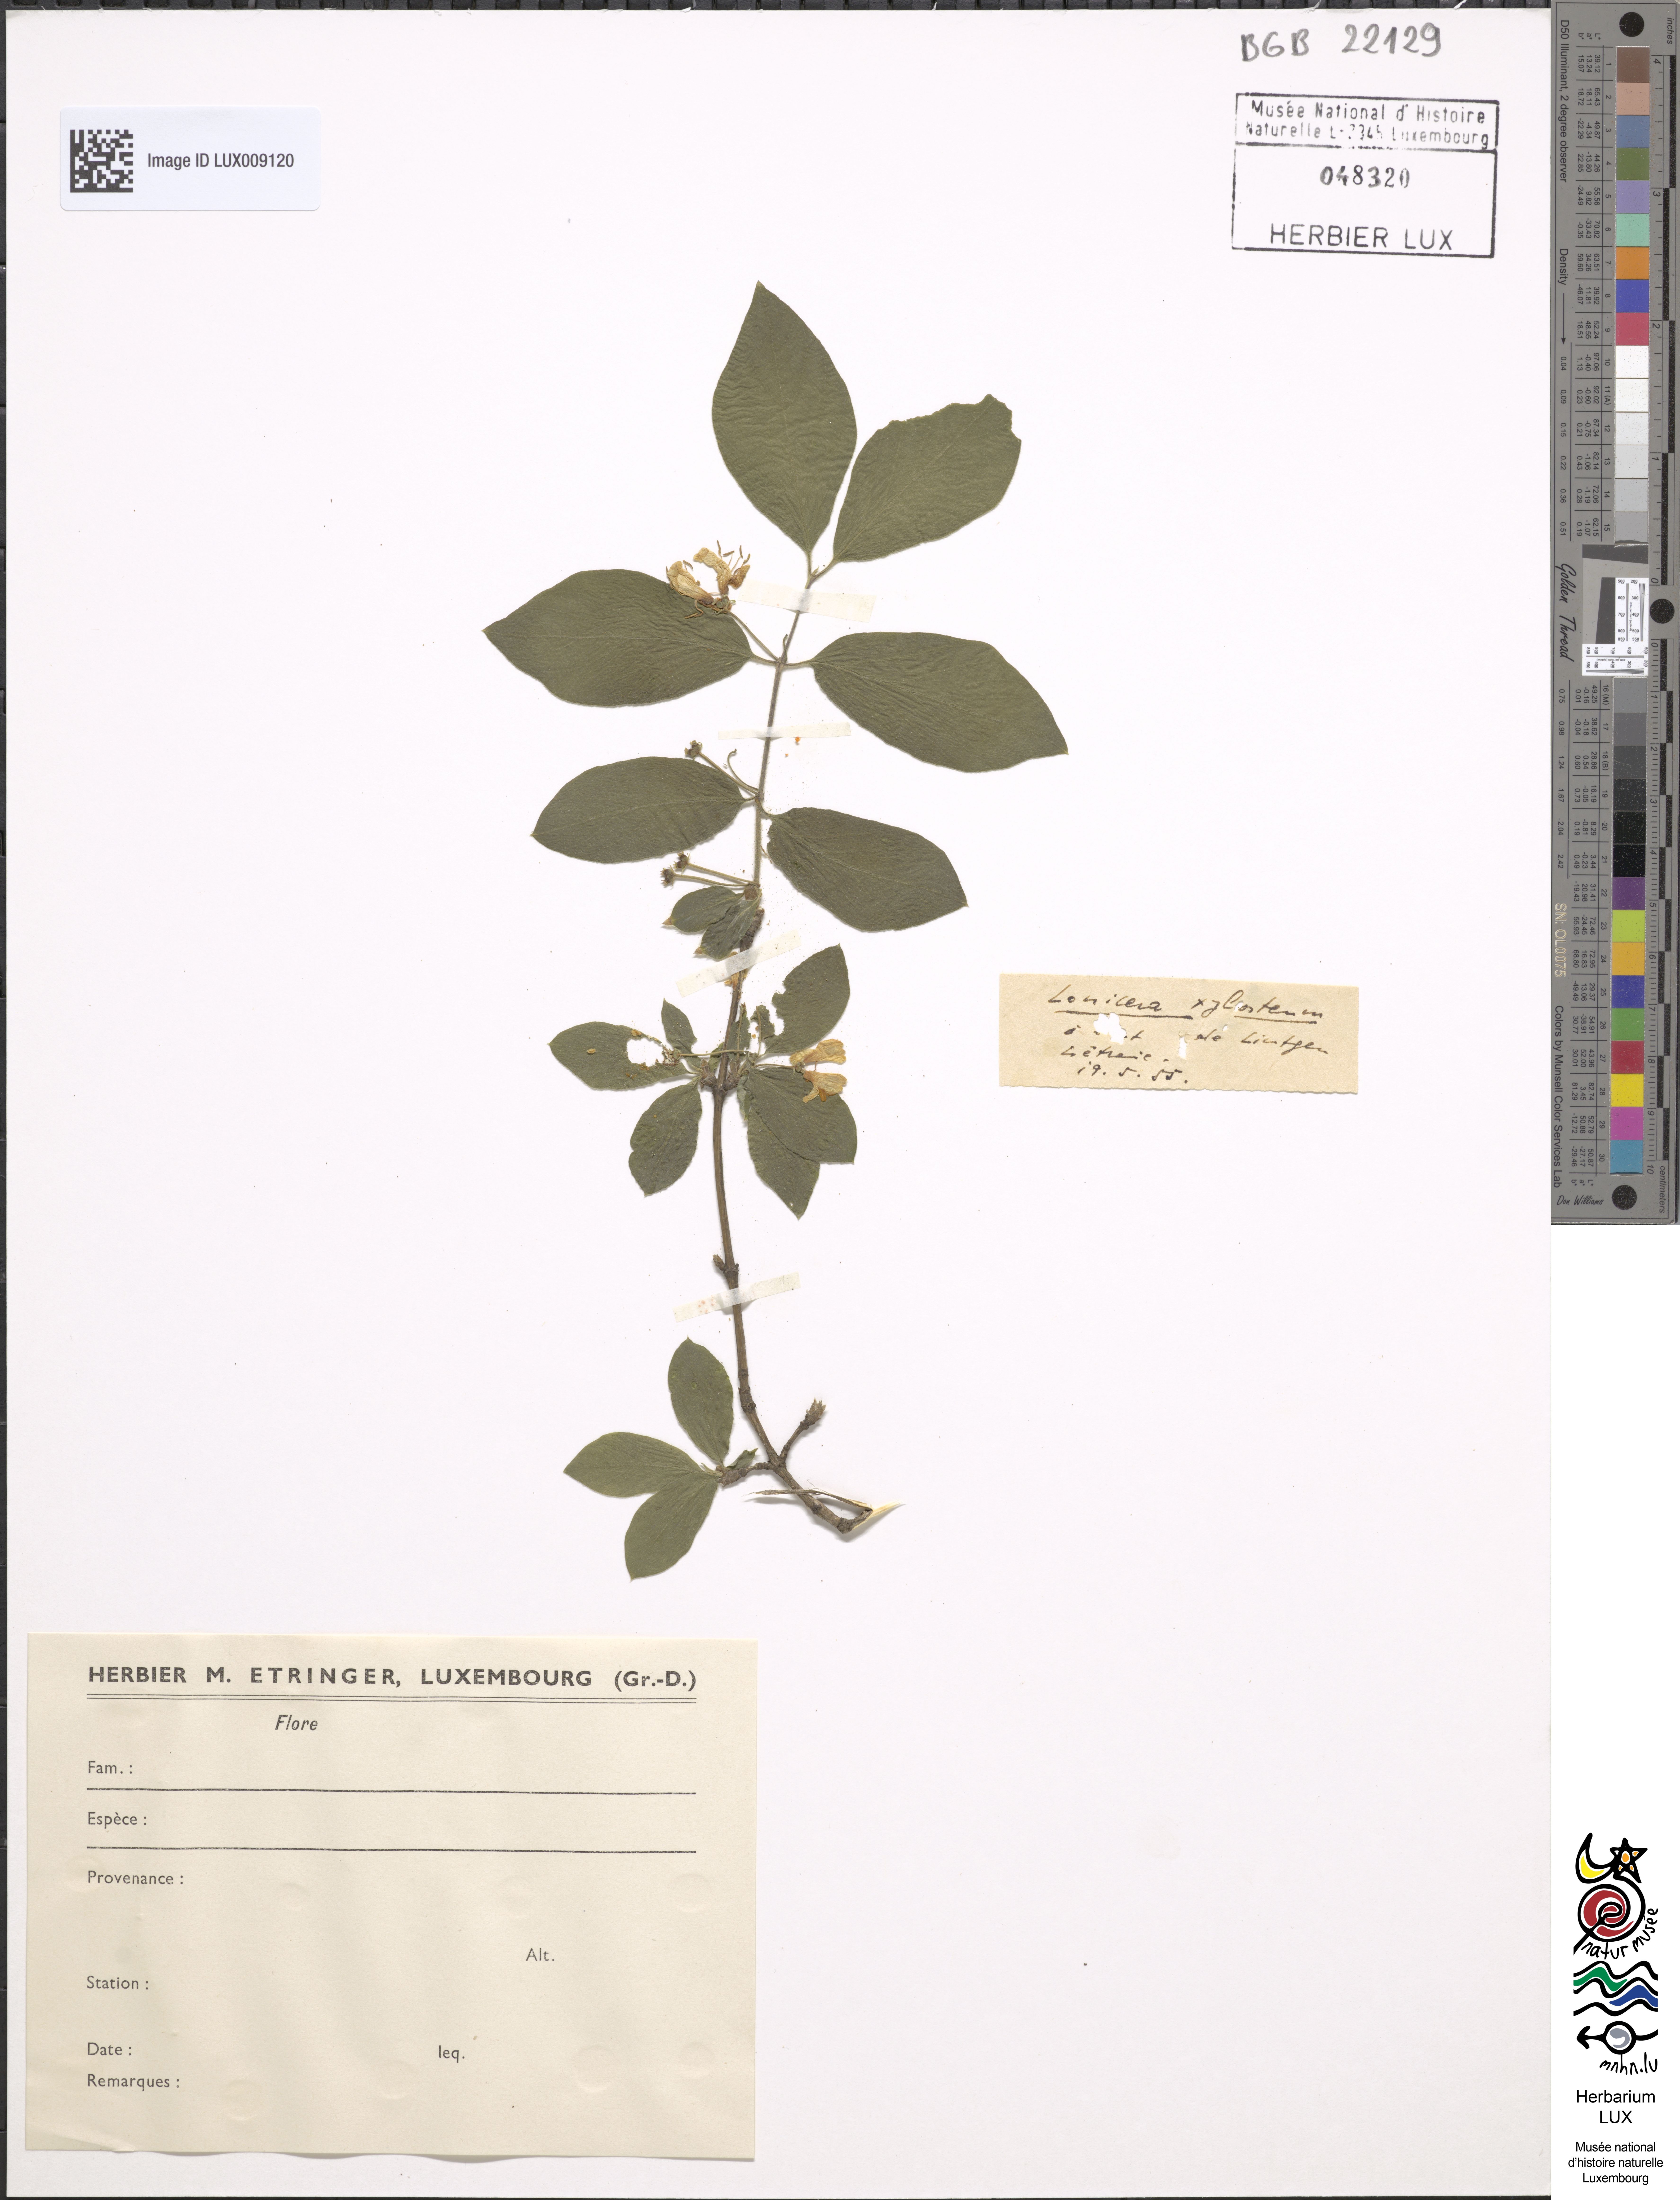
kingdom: Plantae
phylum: Tracheophyta
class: Magnoliopsida
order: Dipsacales
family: Caprifoliaceae
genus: Lonicera
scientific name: Lonicera xylosteum
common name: Fly honeysuckle
